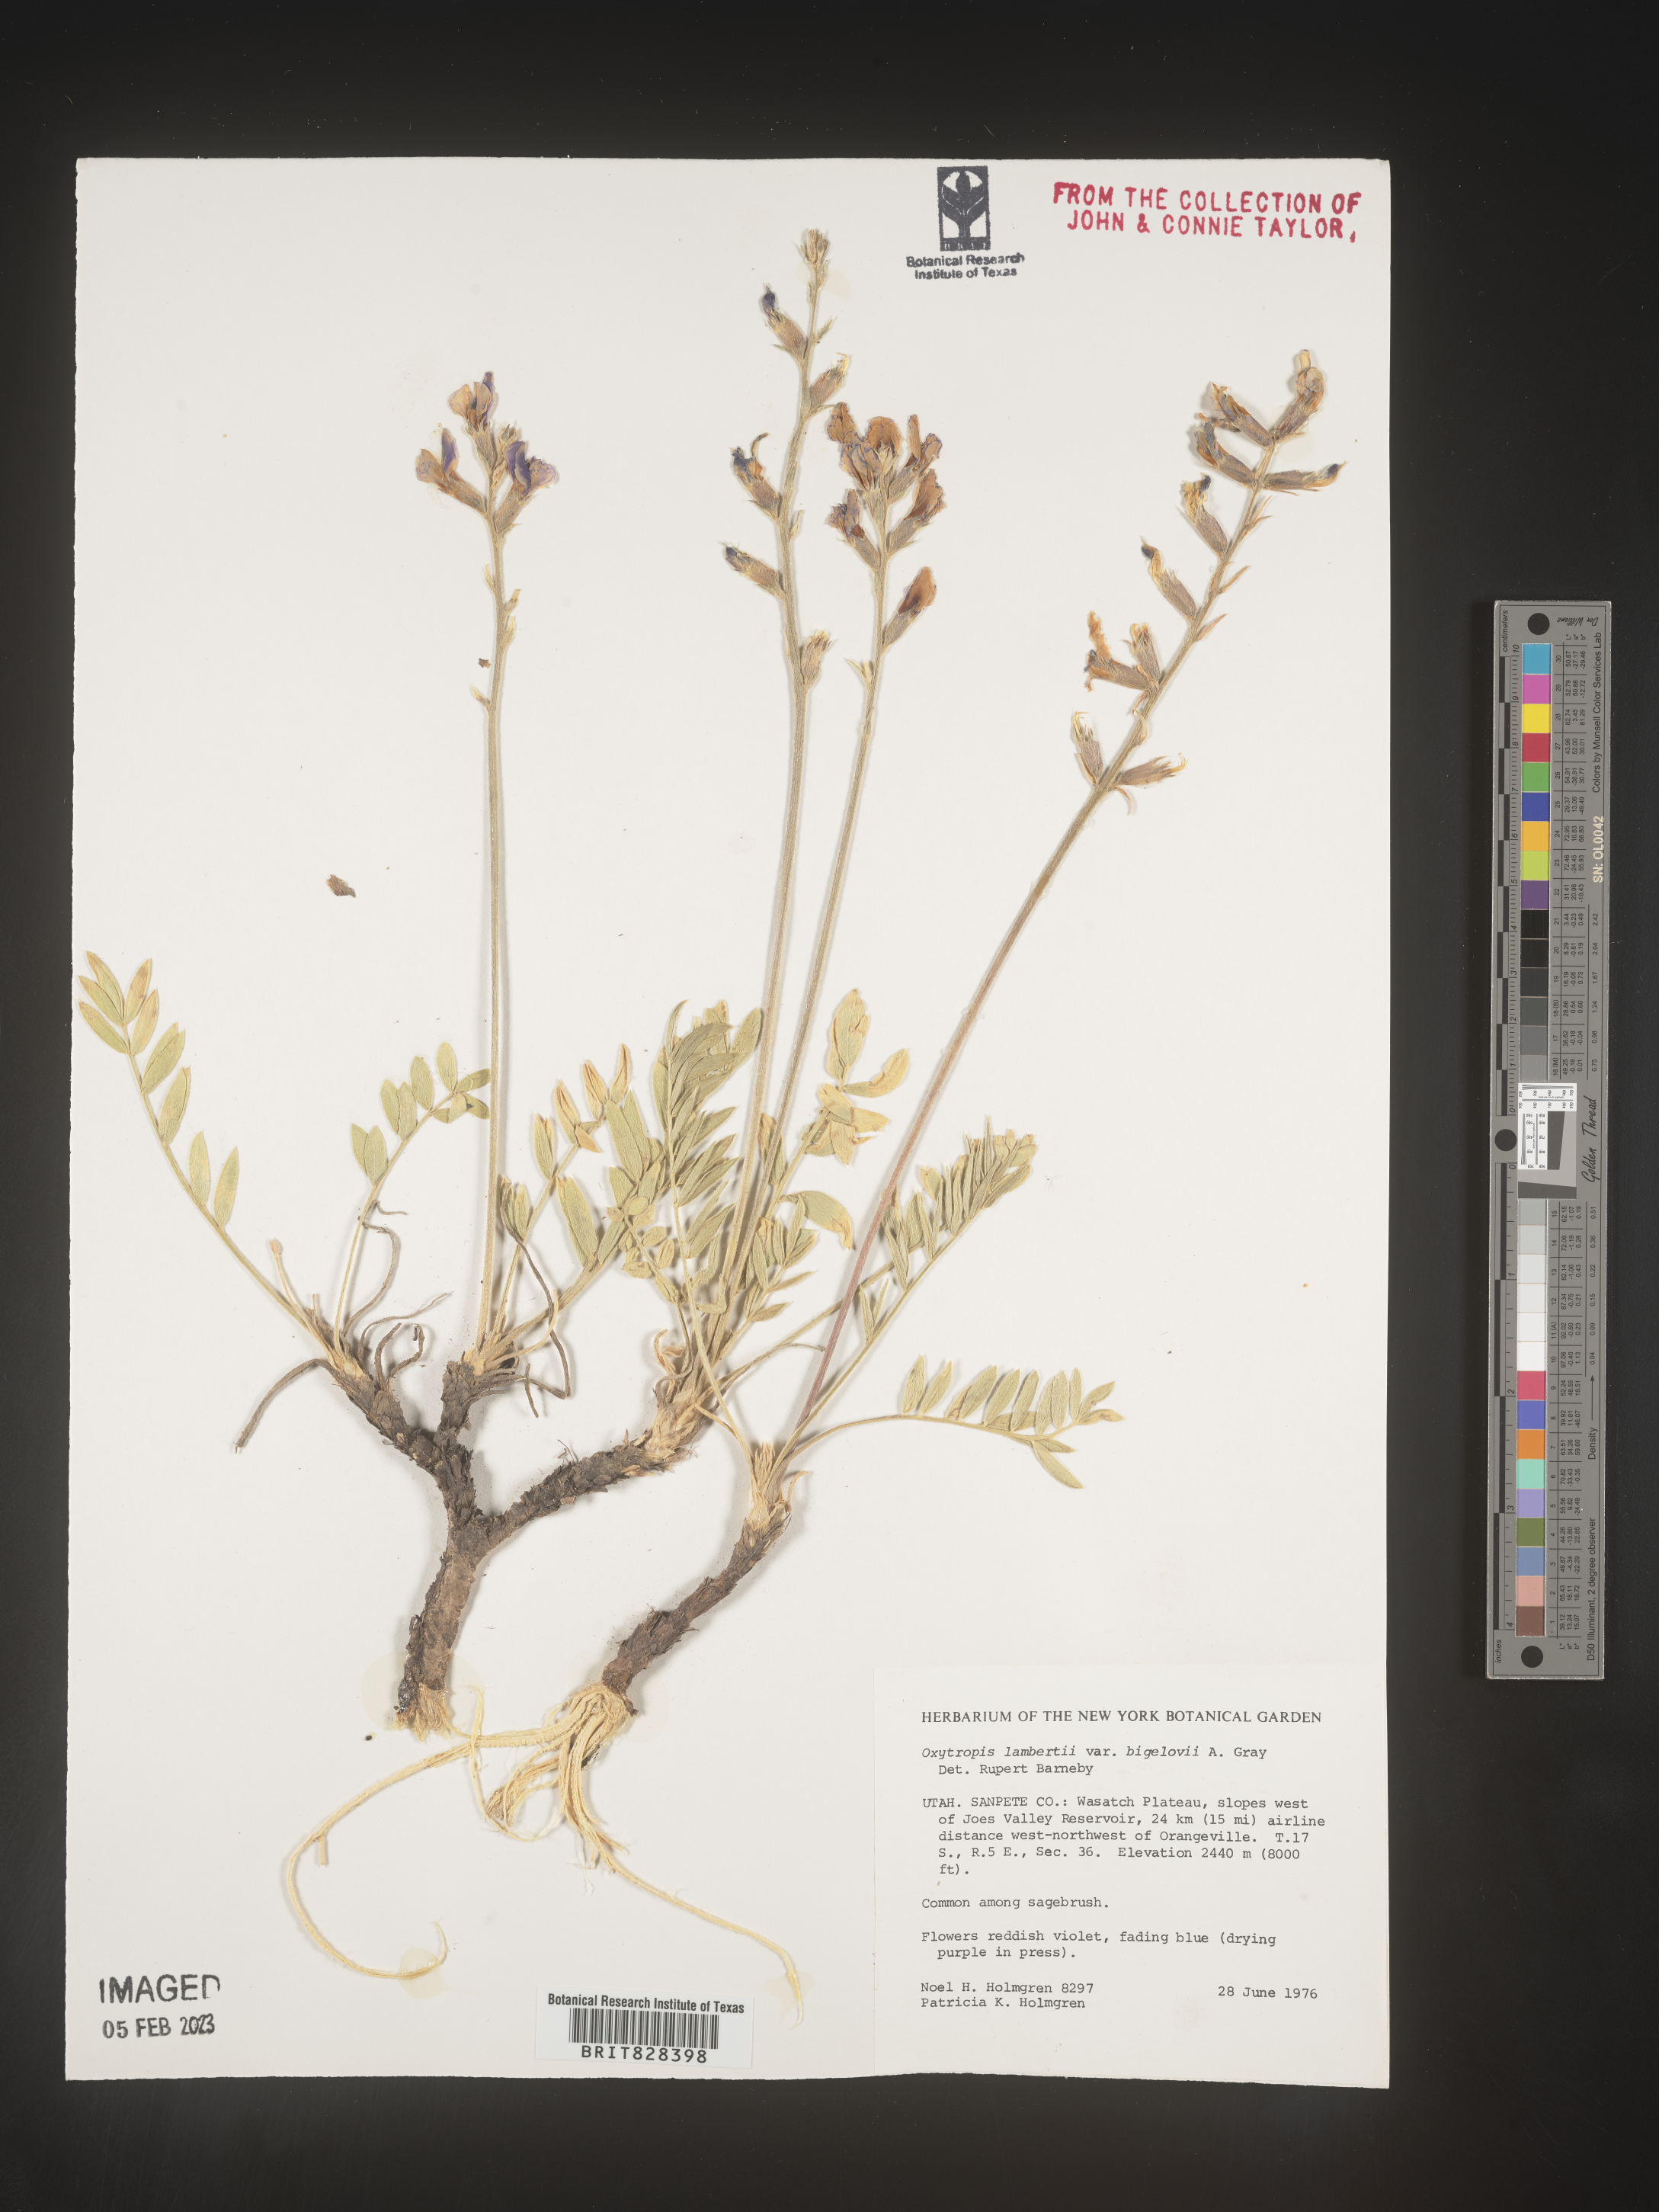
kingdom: Plantae
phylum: Tracheophyta
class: Magnoliopsida
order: Fabales
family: Fabaceae
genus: Oxytropis
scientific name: Oxytropis lambertii
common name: Purple locoweed
